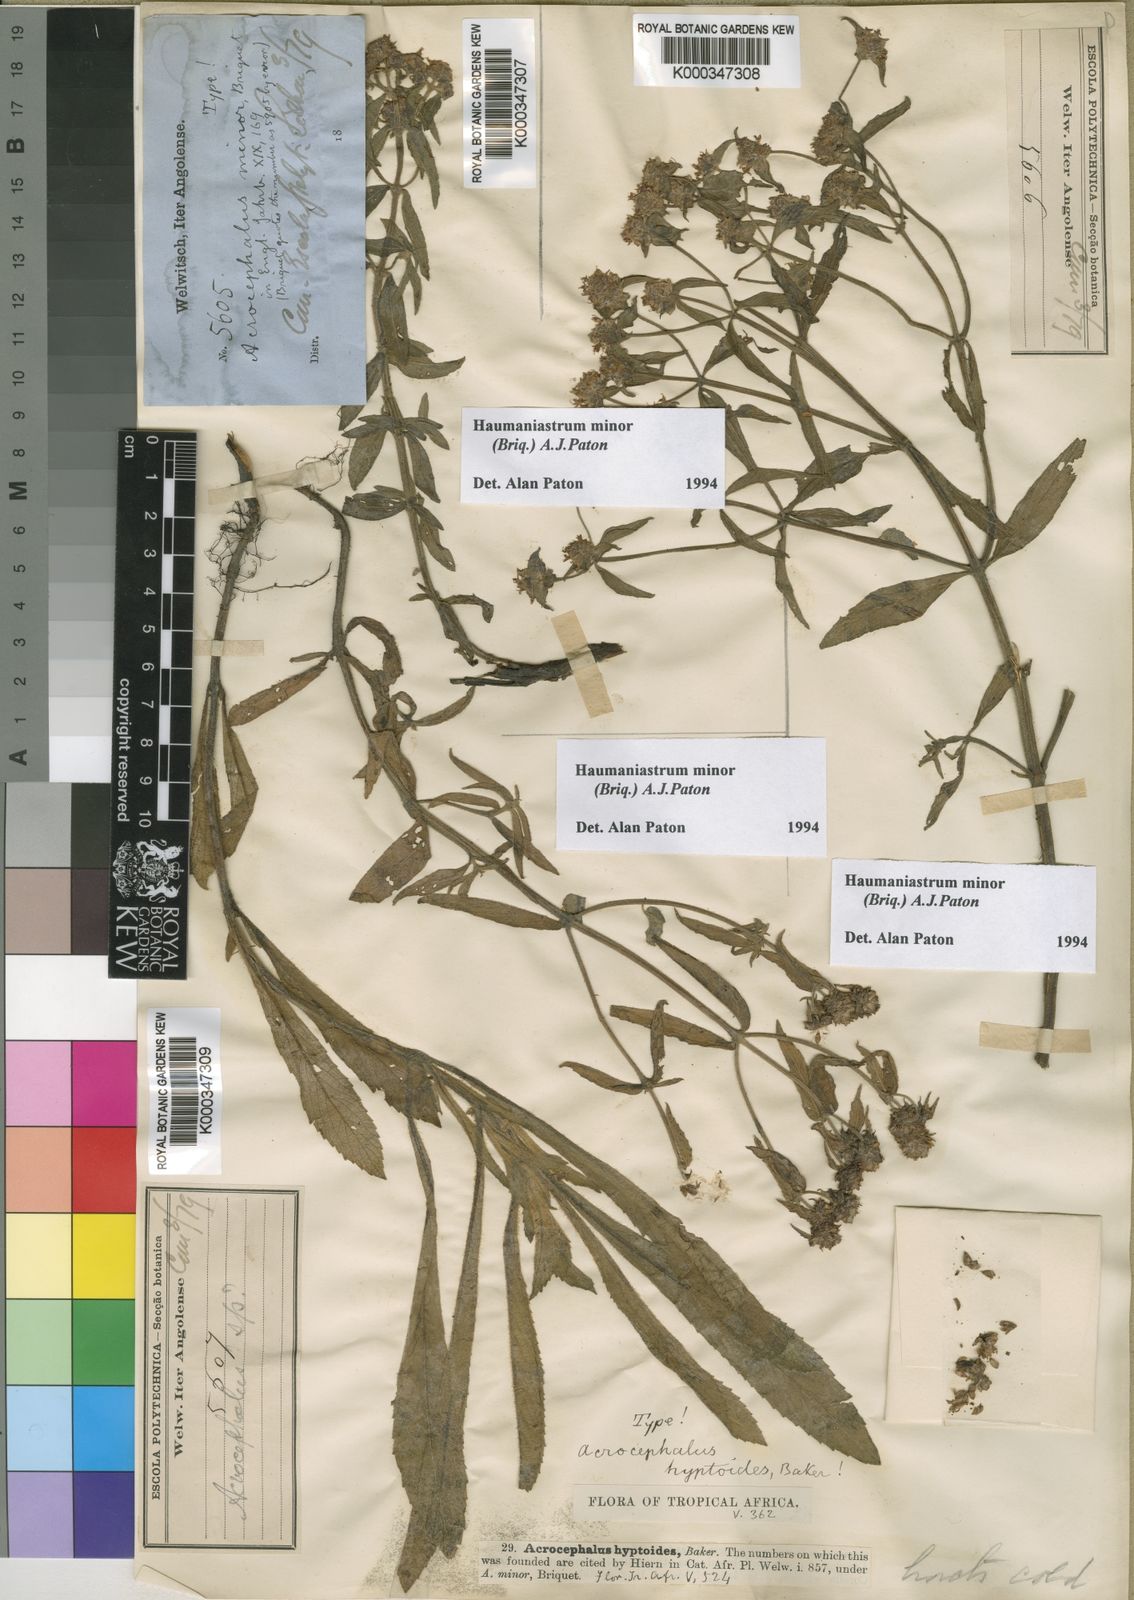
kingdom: Plantae
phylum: Tracheophyta
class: Magnoliopsida
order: Lamiales
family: Lamiaceae
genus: Haumaniastrum
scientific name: Haumaniastrum minor
